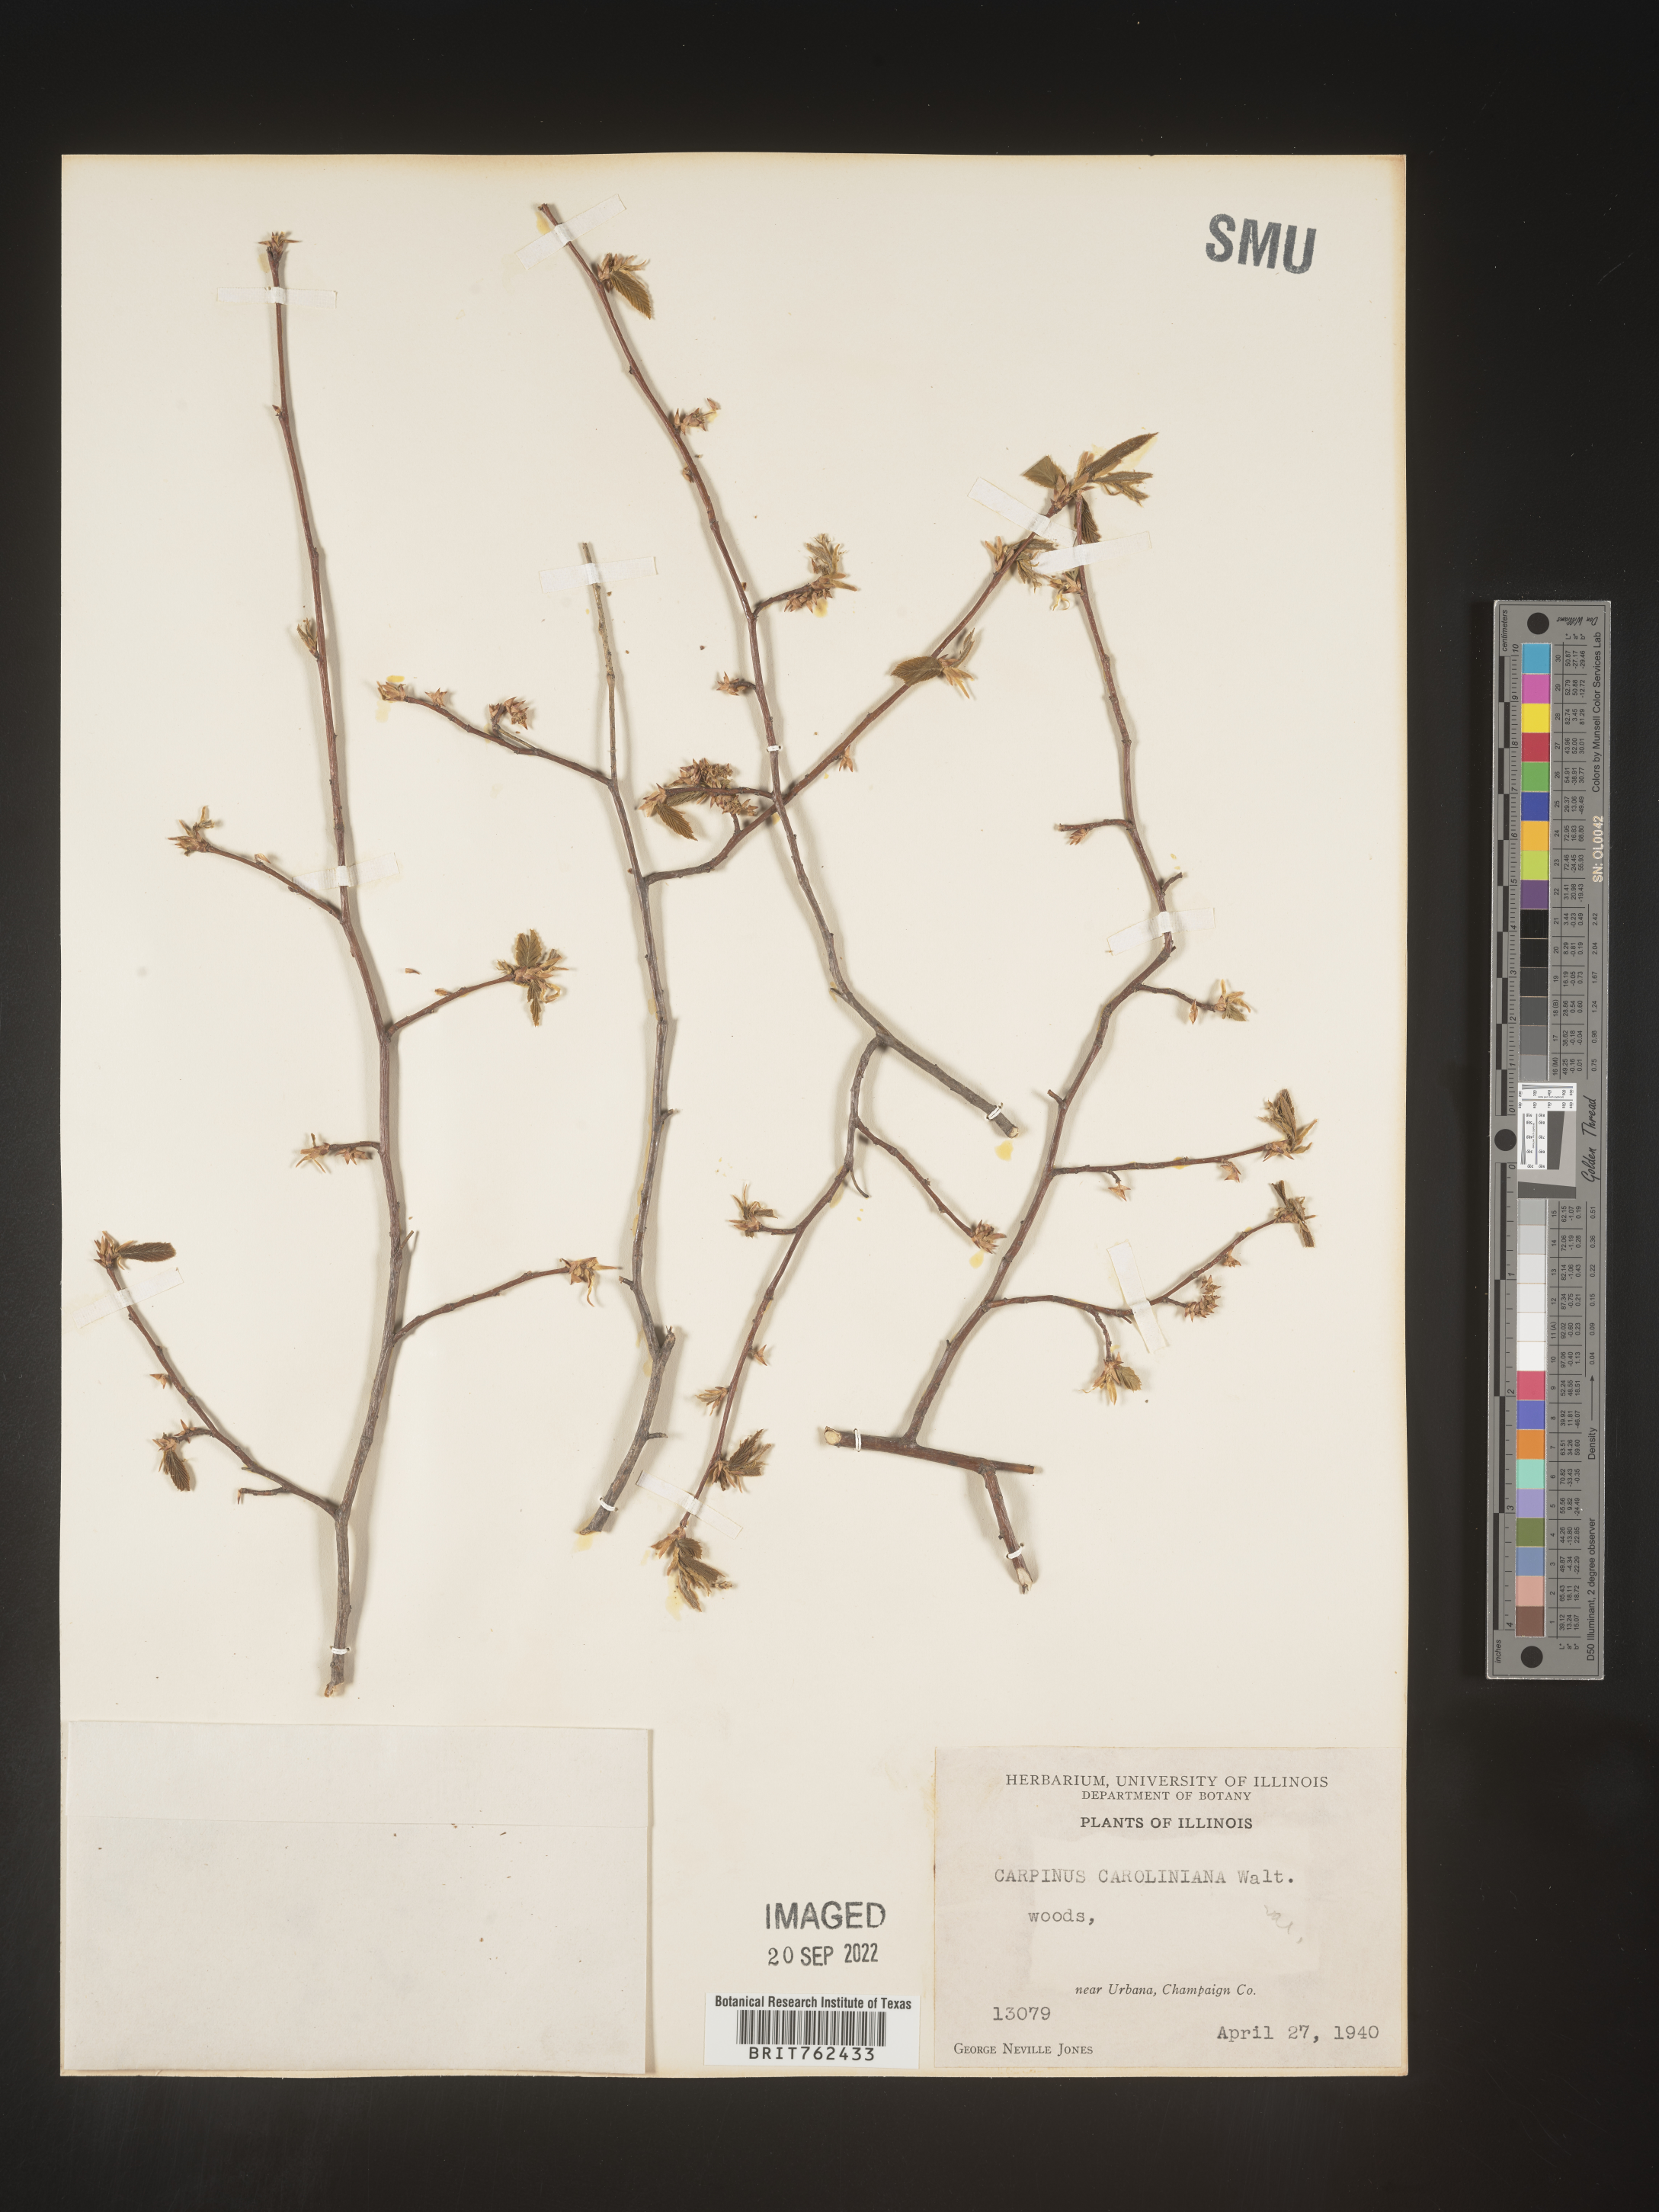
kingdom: Plantae
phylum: Tracheophyta
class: Magnoliopsida
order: Fagales
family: Betulaceae
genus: Carpinus
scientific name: Carpinus caroliniana
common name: American hornbeam
